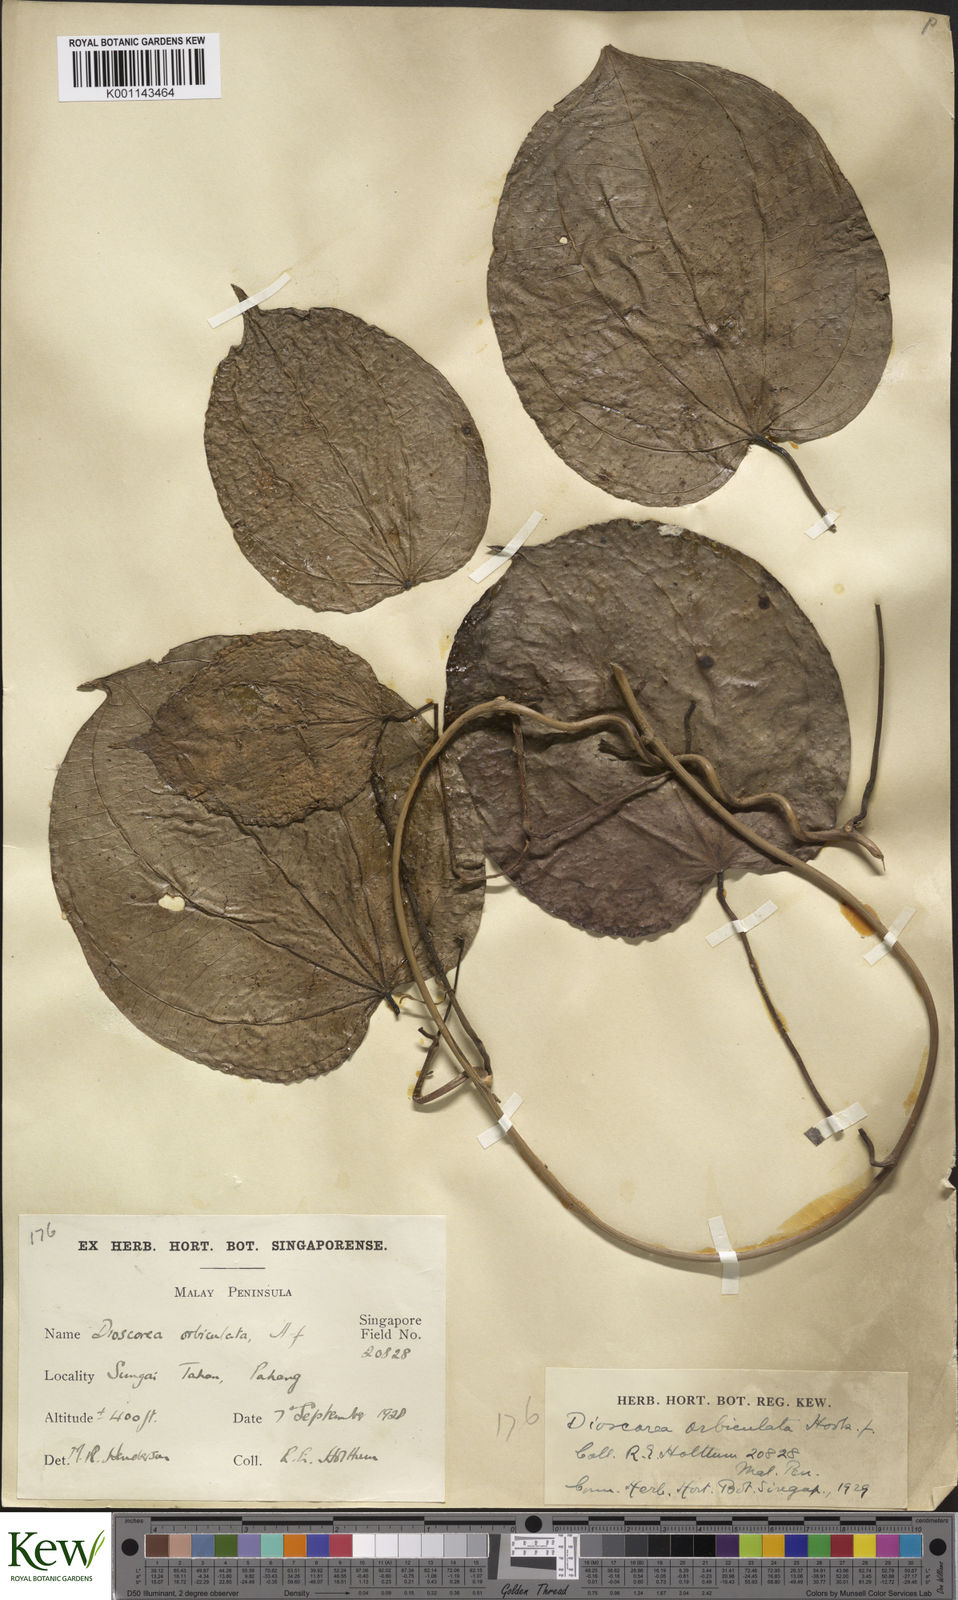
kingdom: Plantae
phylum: Tracheophyta
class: Liliopsida
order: Dioscoreales
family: Dioscoreaceae
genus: Dioscorea
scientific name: Dioscorea orbiculata
